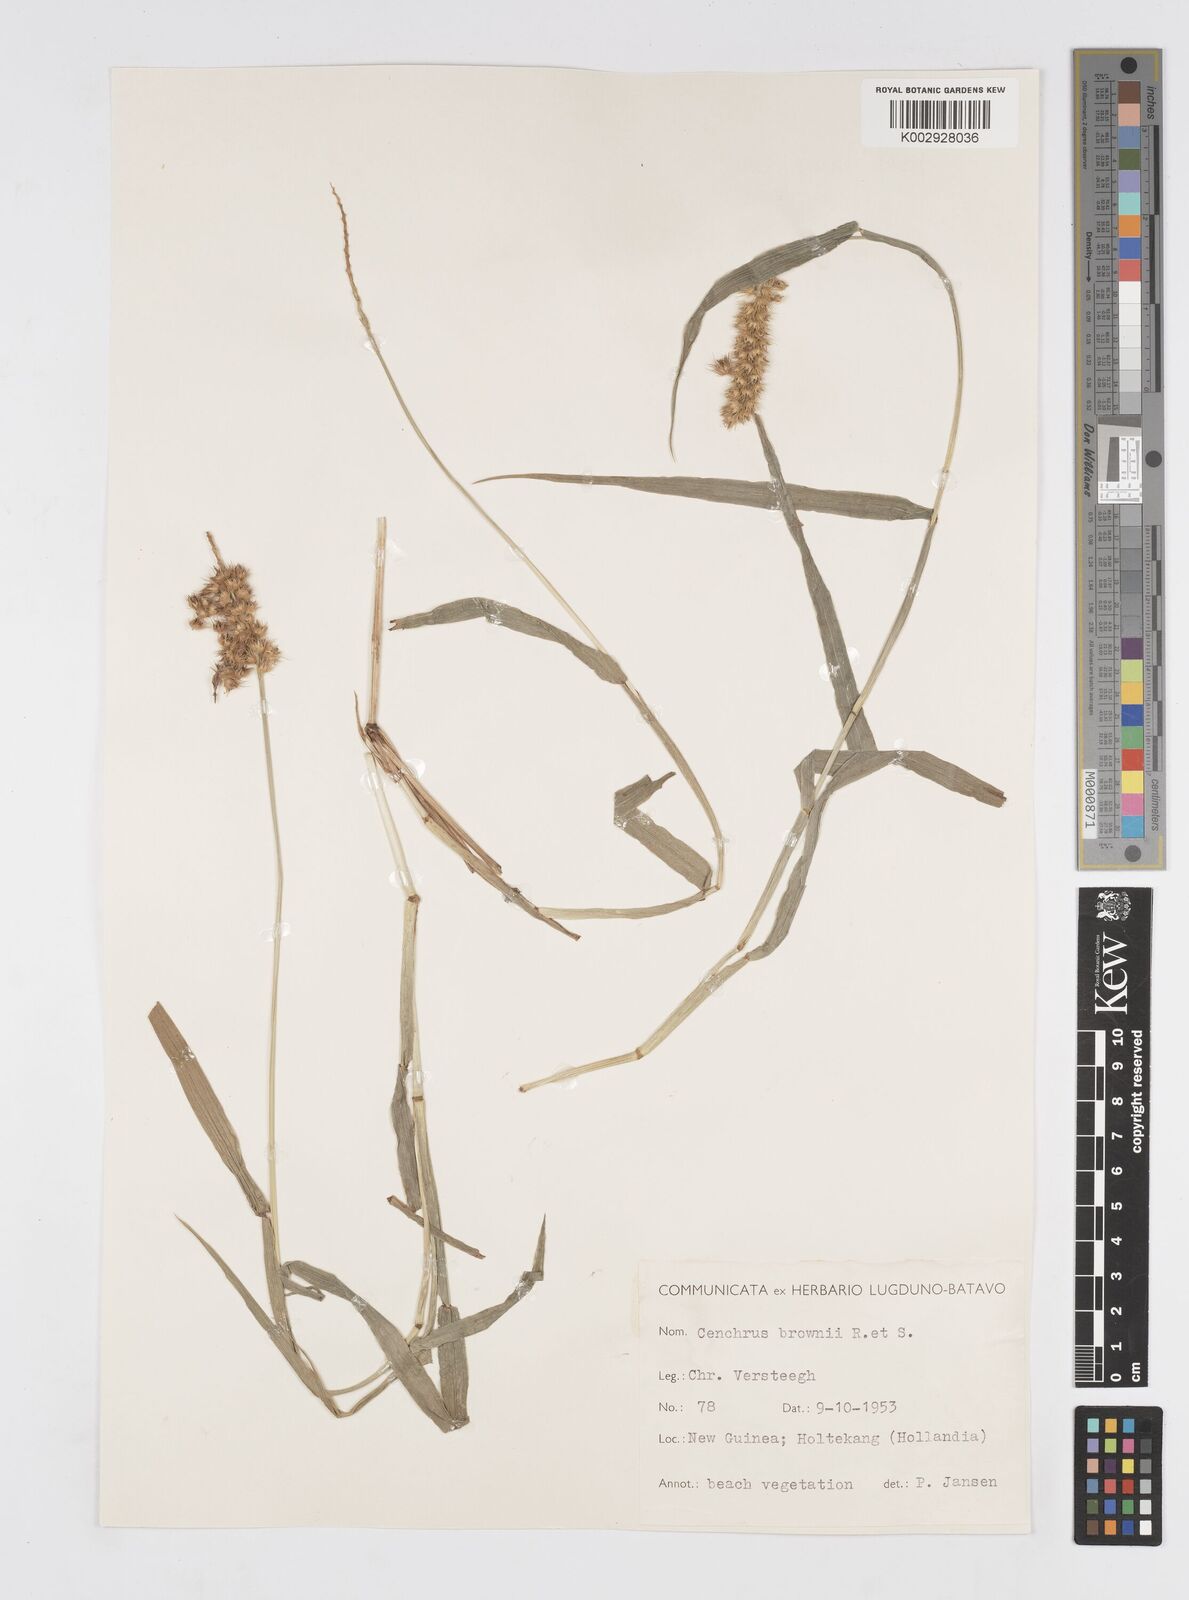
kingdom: Plantae
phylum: Tracheophyta
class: Liliopsida
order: Poales
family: Poaceae
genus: Cenchrus
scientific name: Cenchrus brownii
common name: Slim-bristle sandbur
